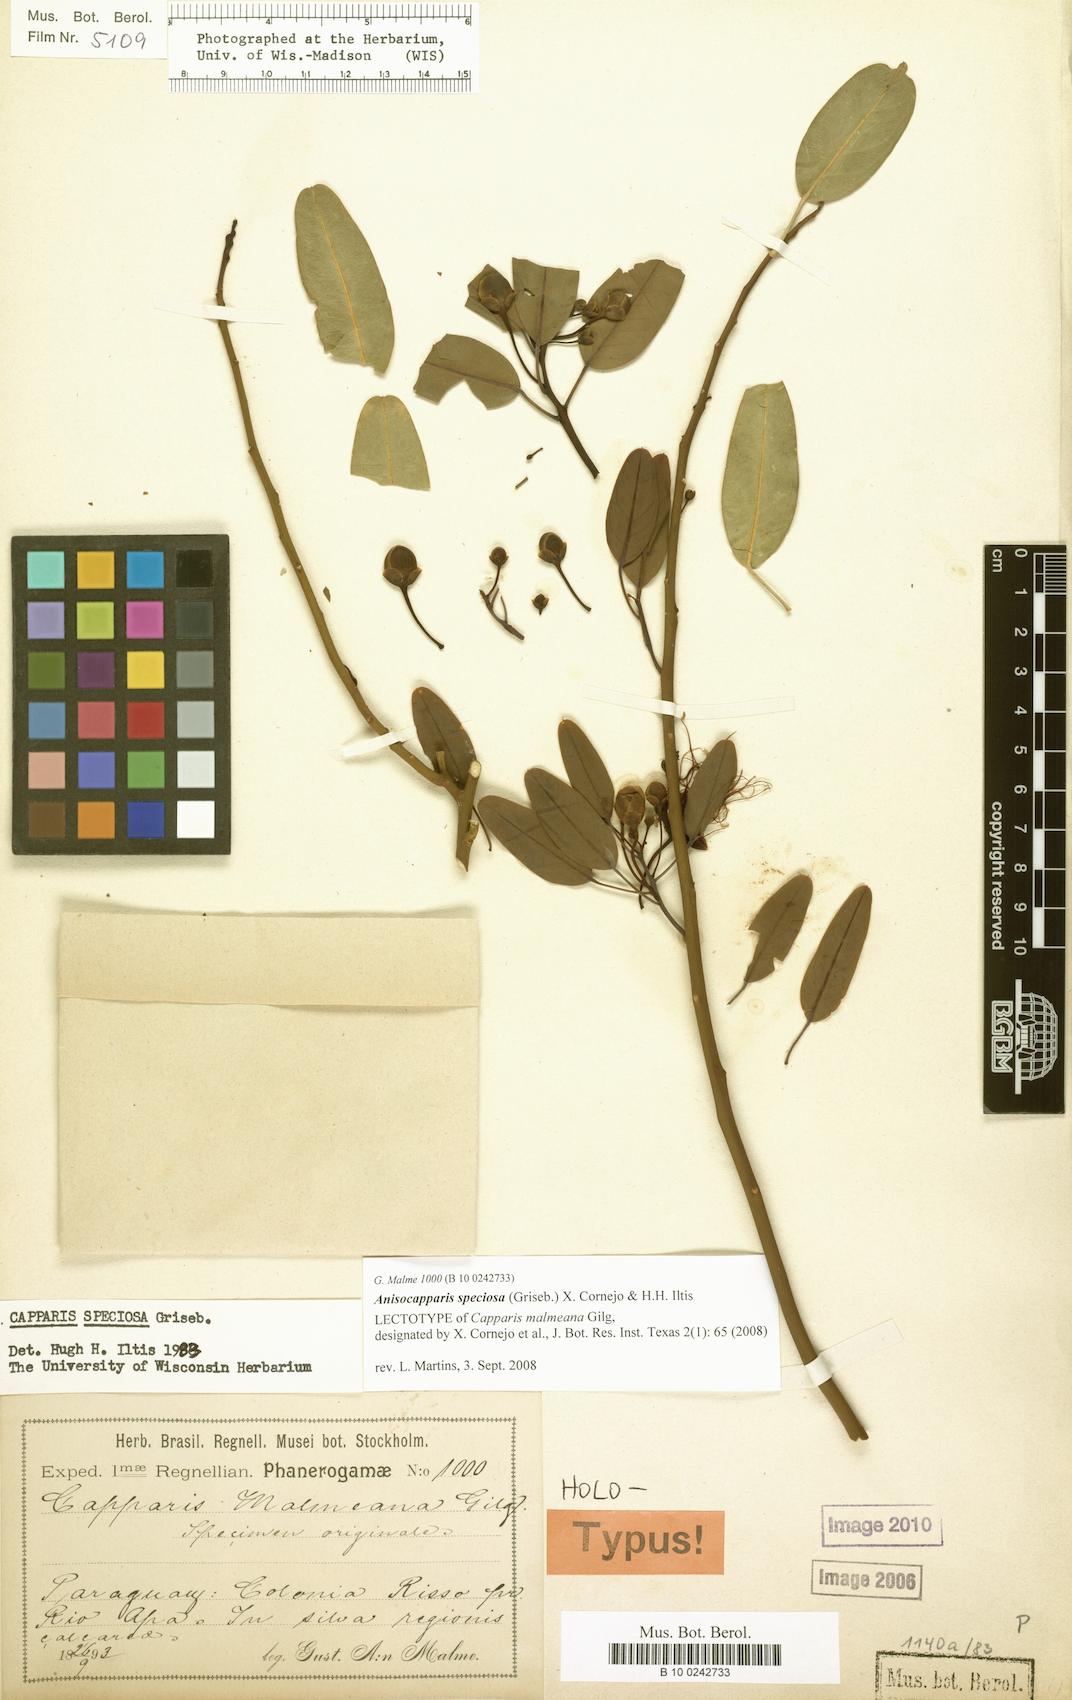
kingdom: Plantae
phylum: Tracheophyta
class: Magnoliopsida
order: Brassicales
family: Capparaceae
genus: Anisocapparis
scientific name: Anisocapparis speciosa
